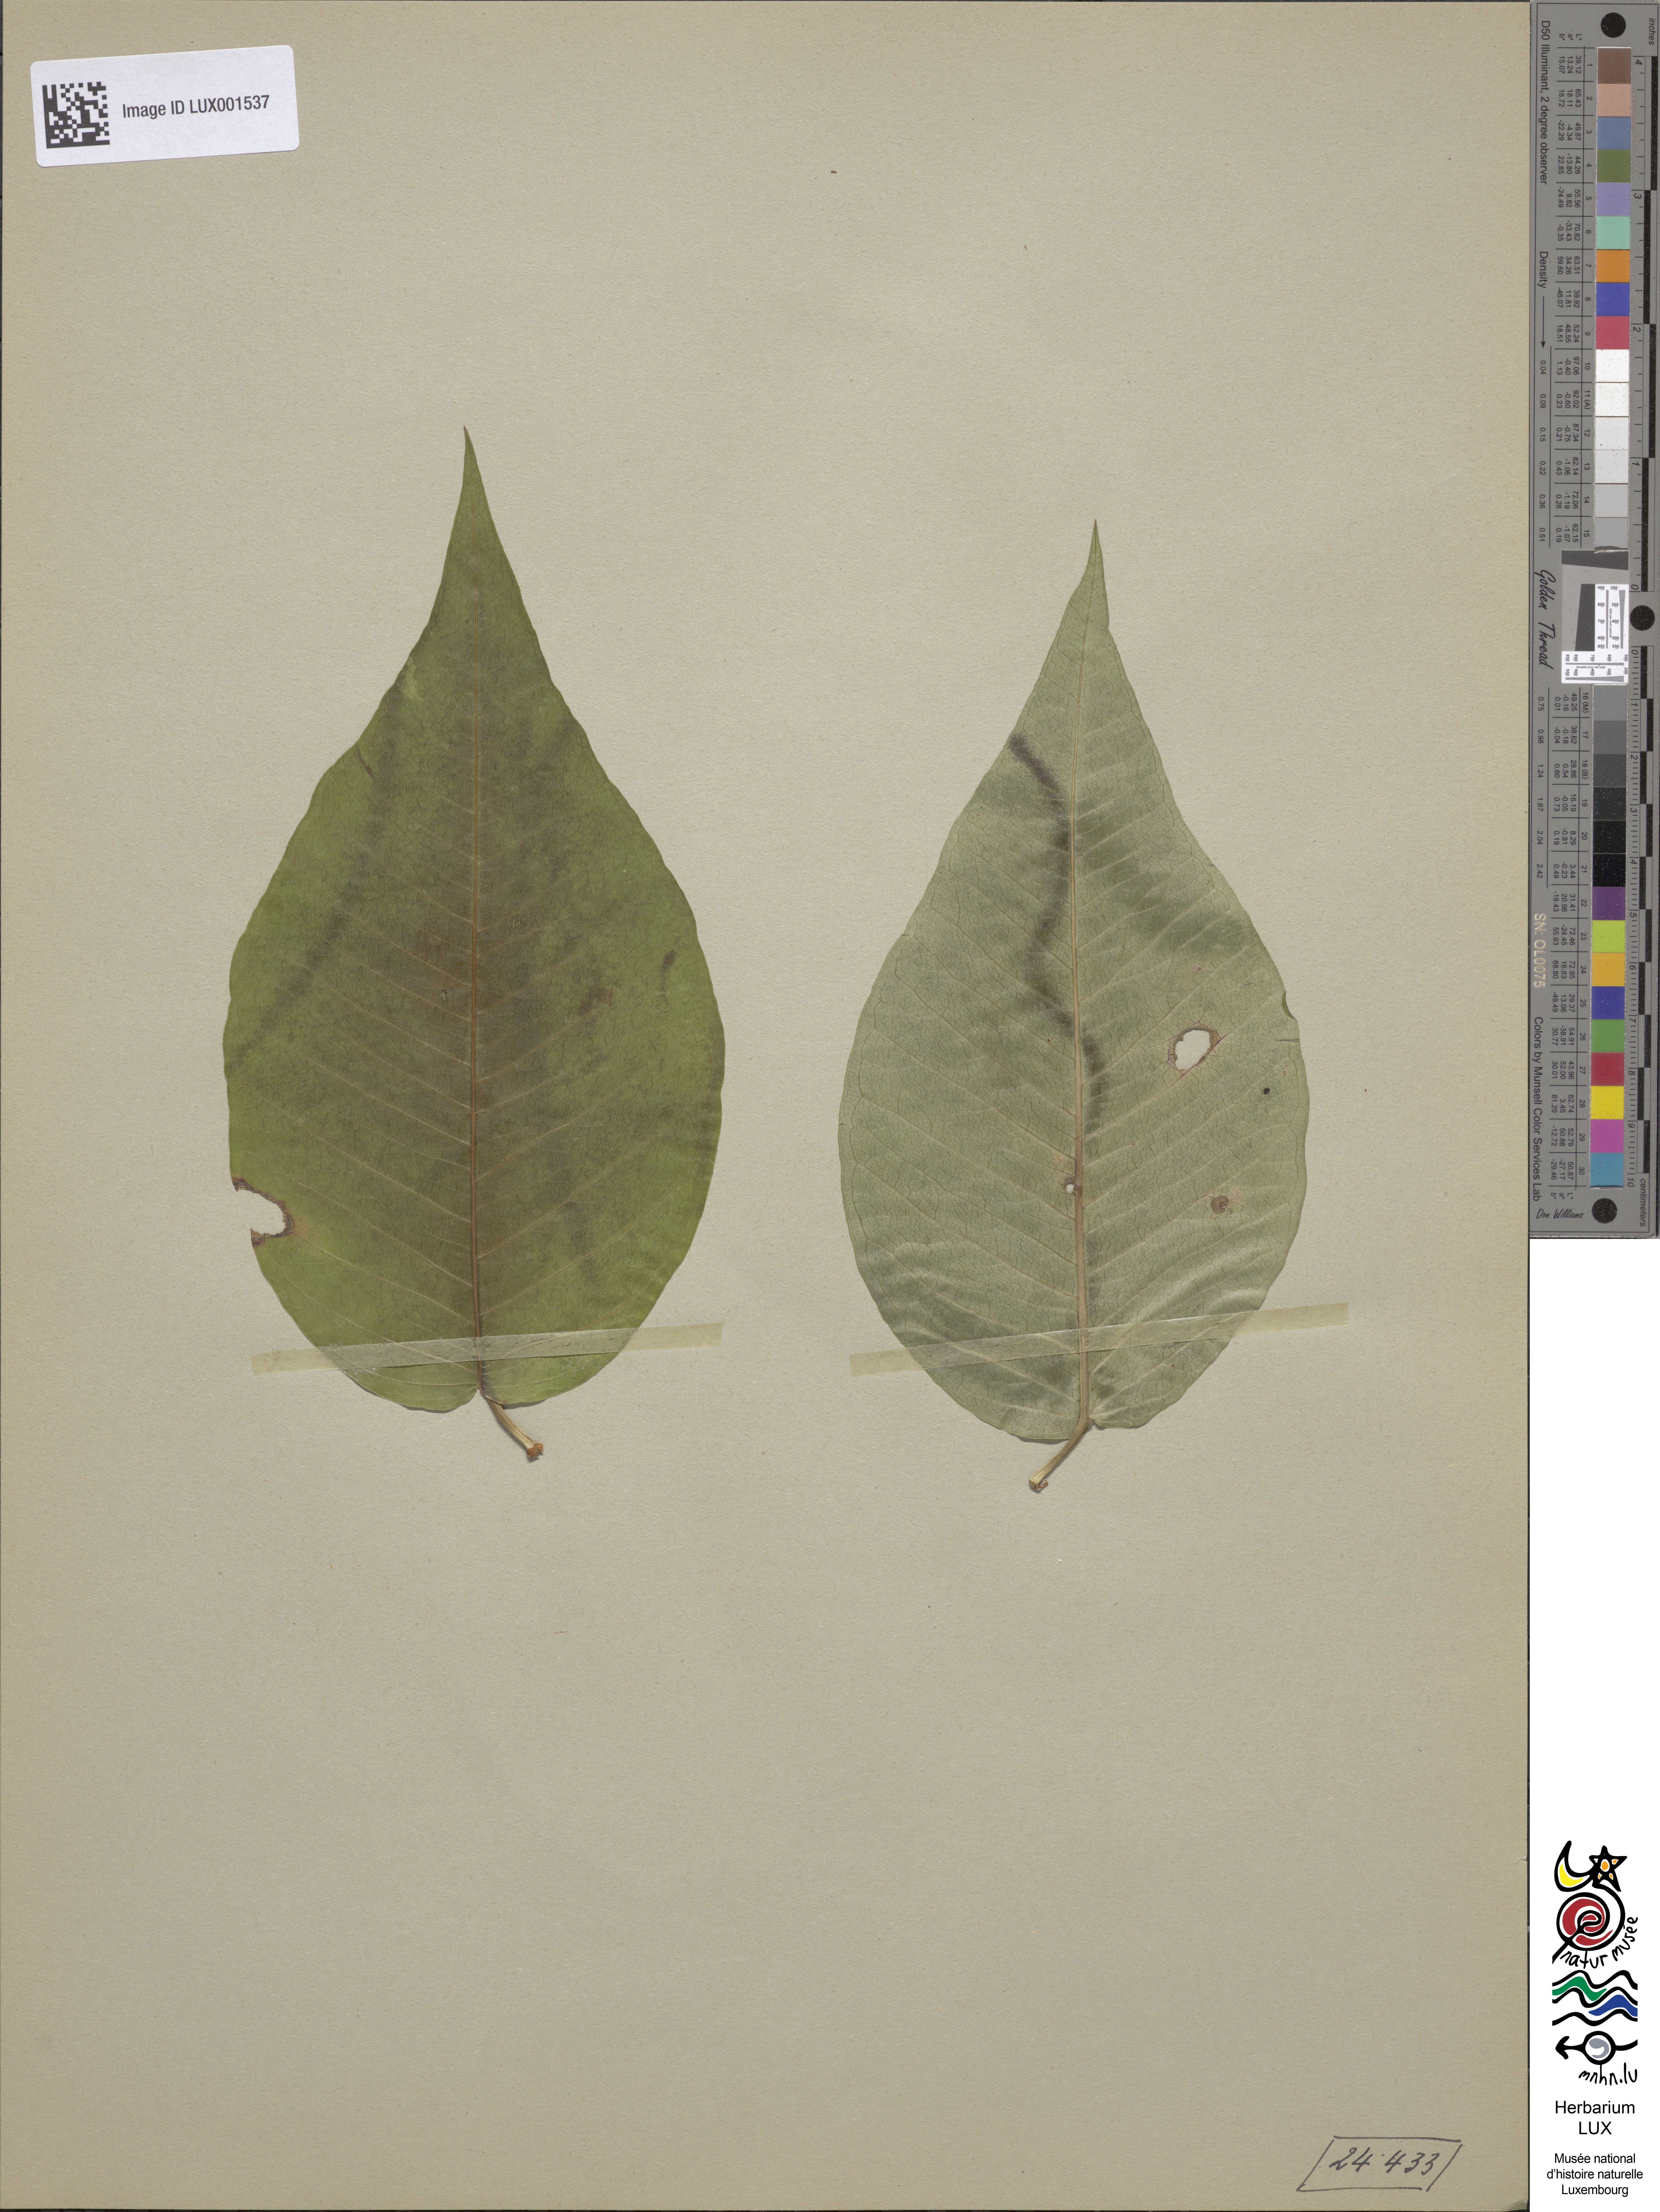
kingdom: Plantae
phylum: Tracheophyta
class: Magnoliopsida
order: Gentianales
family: Apocynaceae
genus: Periploca
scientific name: Periploca graeca
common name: Silkvine
